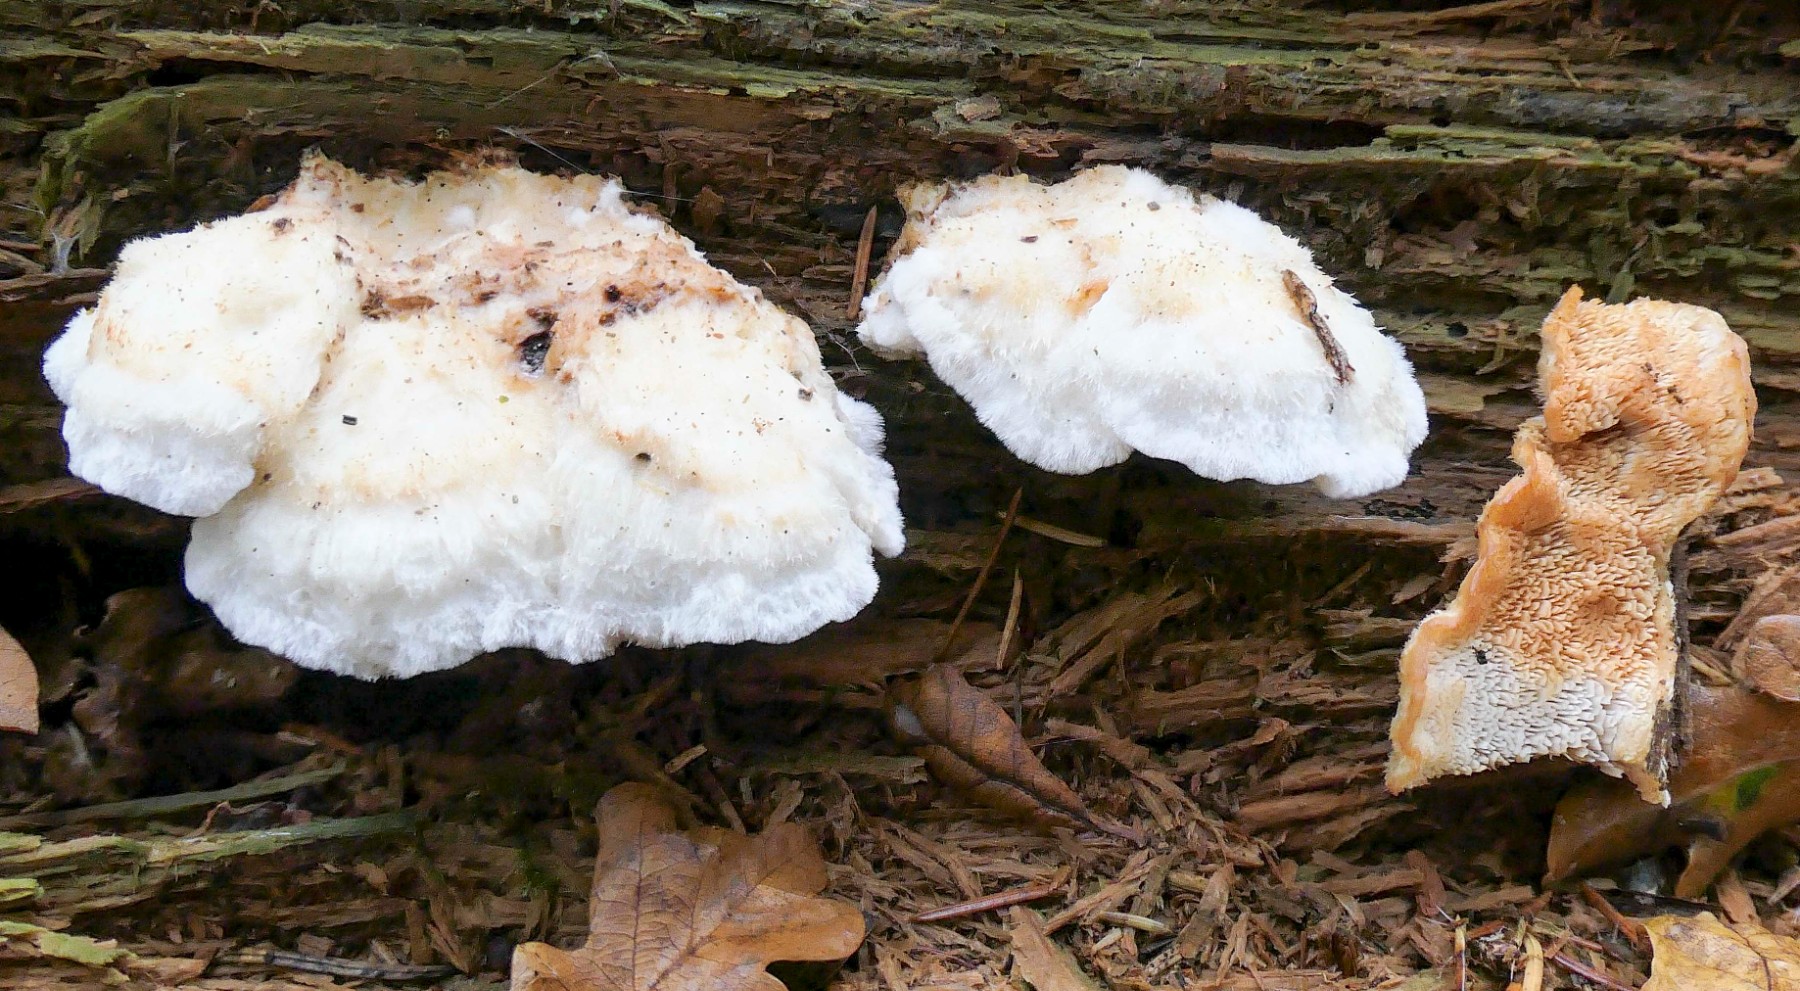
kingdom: Fungi
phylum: Basidiomycota
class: Agaricomycetes
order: Polyporales
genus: Fuscopostia
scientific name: Fuscopostia fragilis
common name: brunende kødporesvamp
